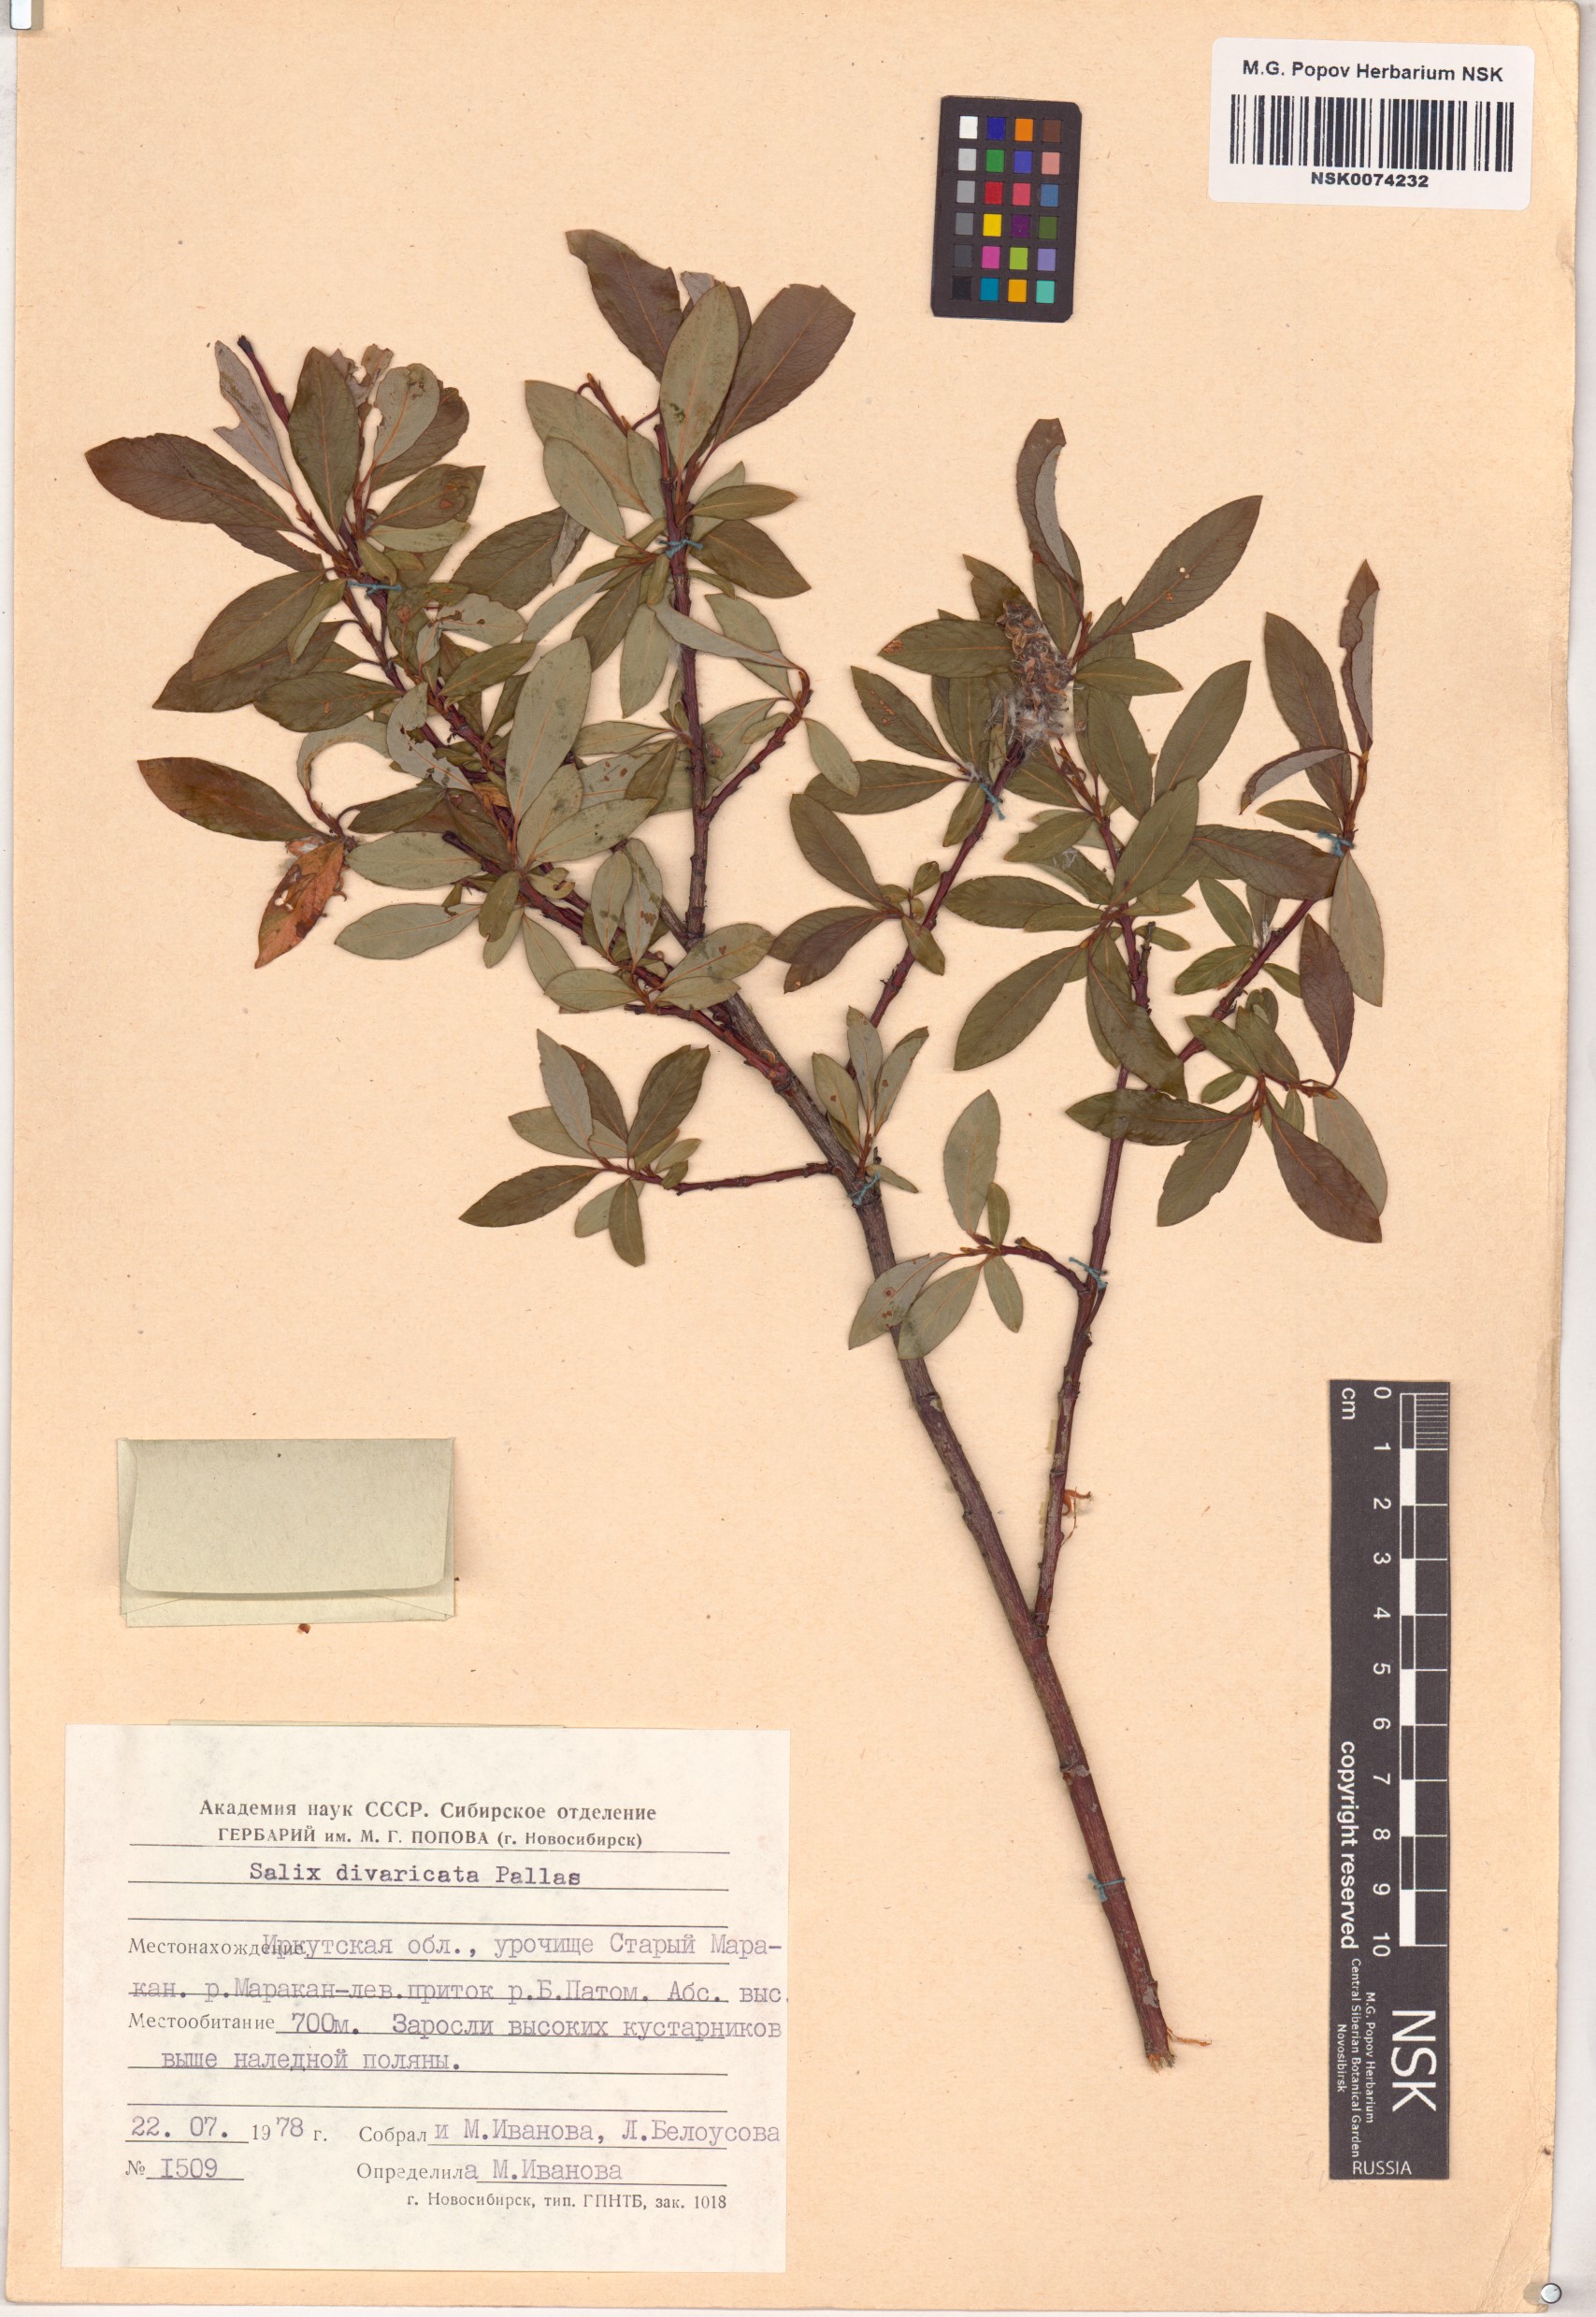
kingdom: Plantae
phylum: Tracheophyta
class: Magnoliopsida
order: Malpighiales
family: Salicaceae
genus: Salix
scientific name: Salix divaricata
